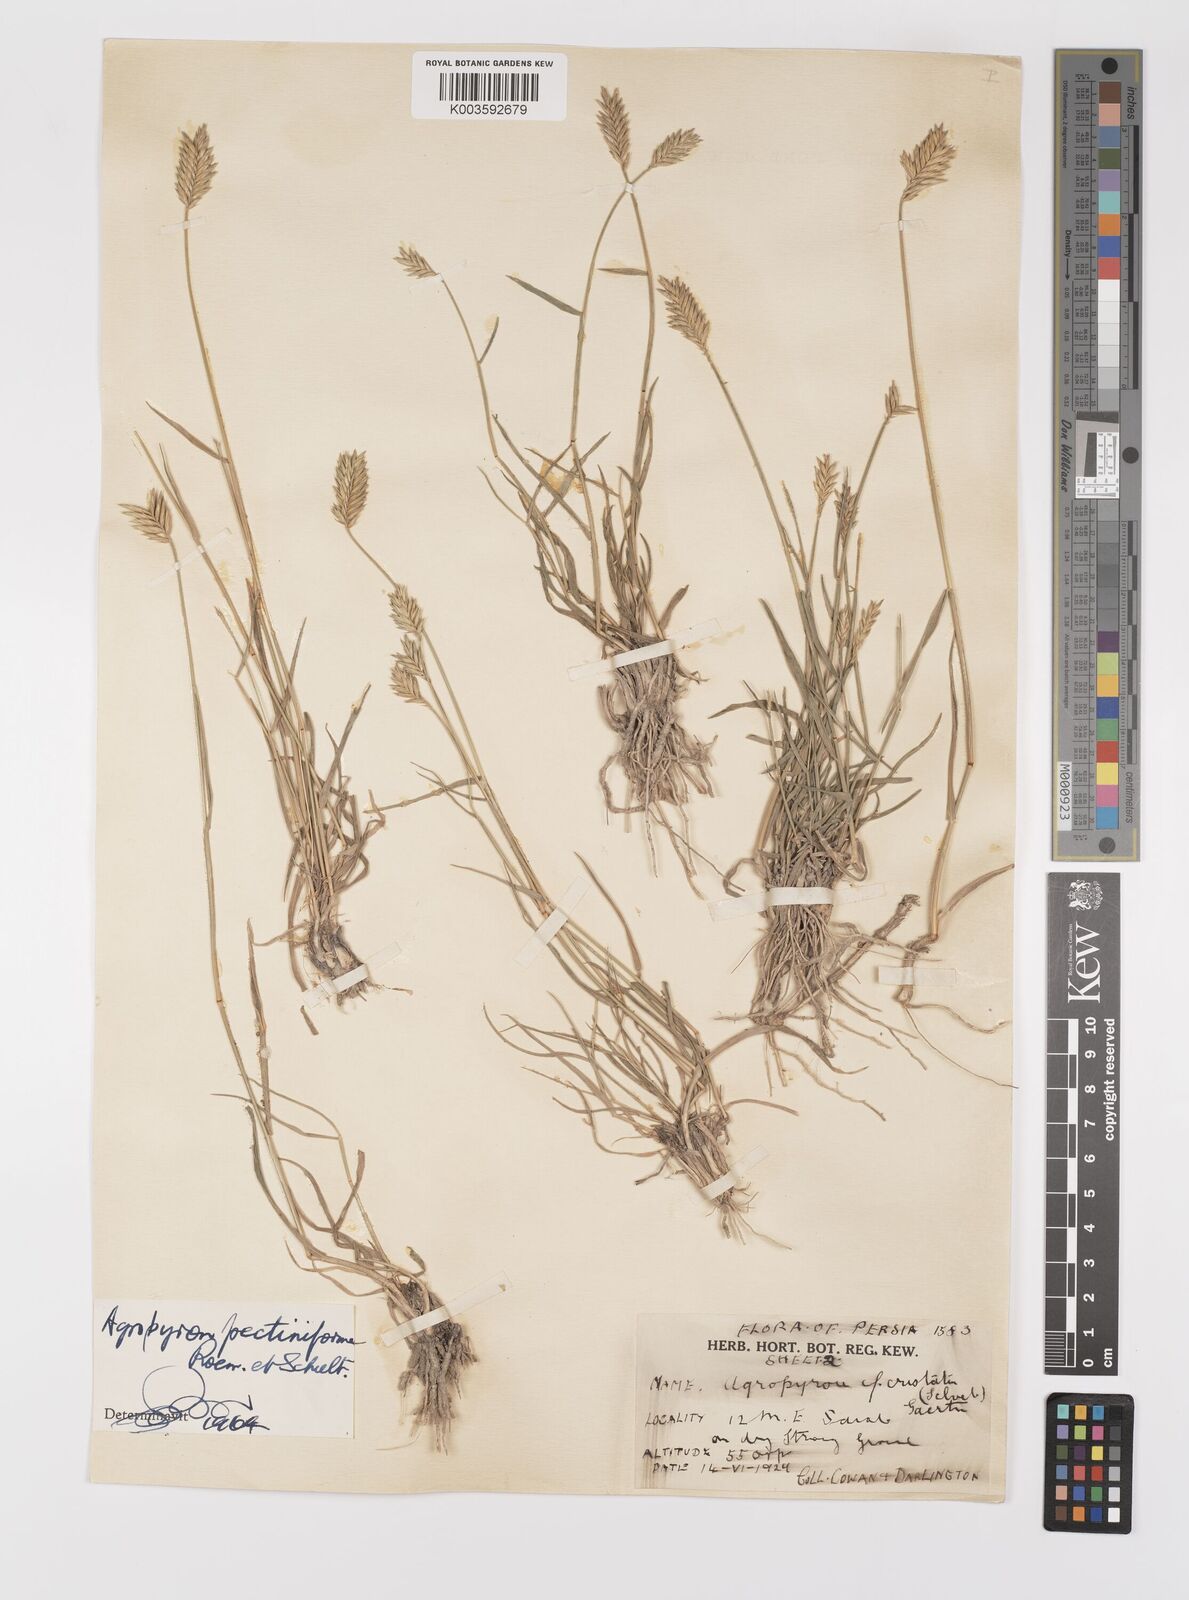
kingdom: Plantae
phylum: Tracheophyta
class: Liliopsida
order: Poales
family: Poaceae
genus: Agropyron
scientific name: Agropyron
